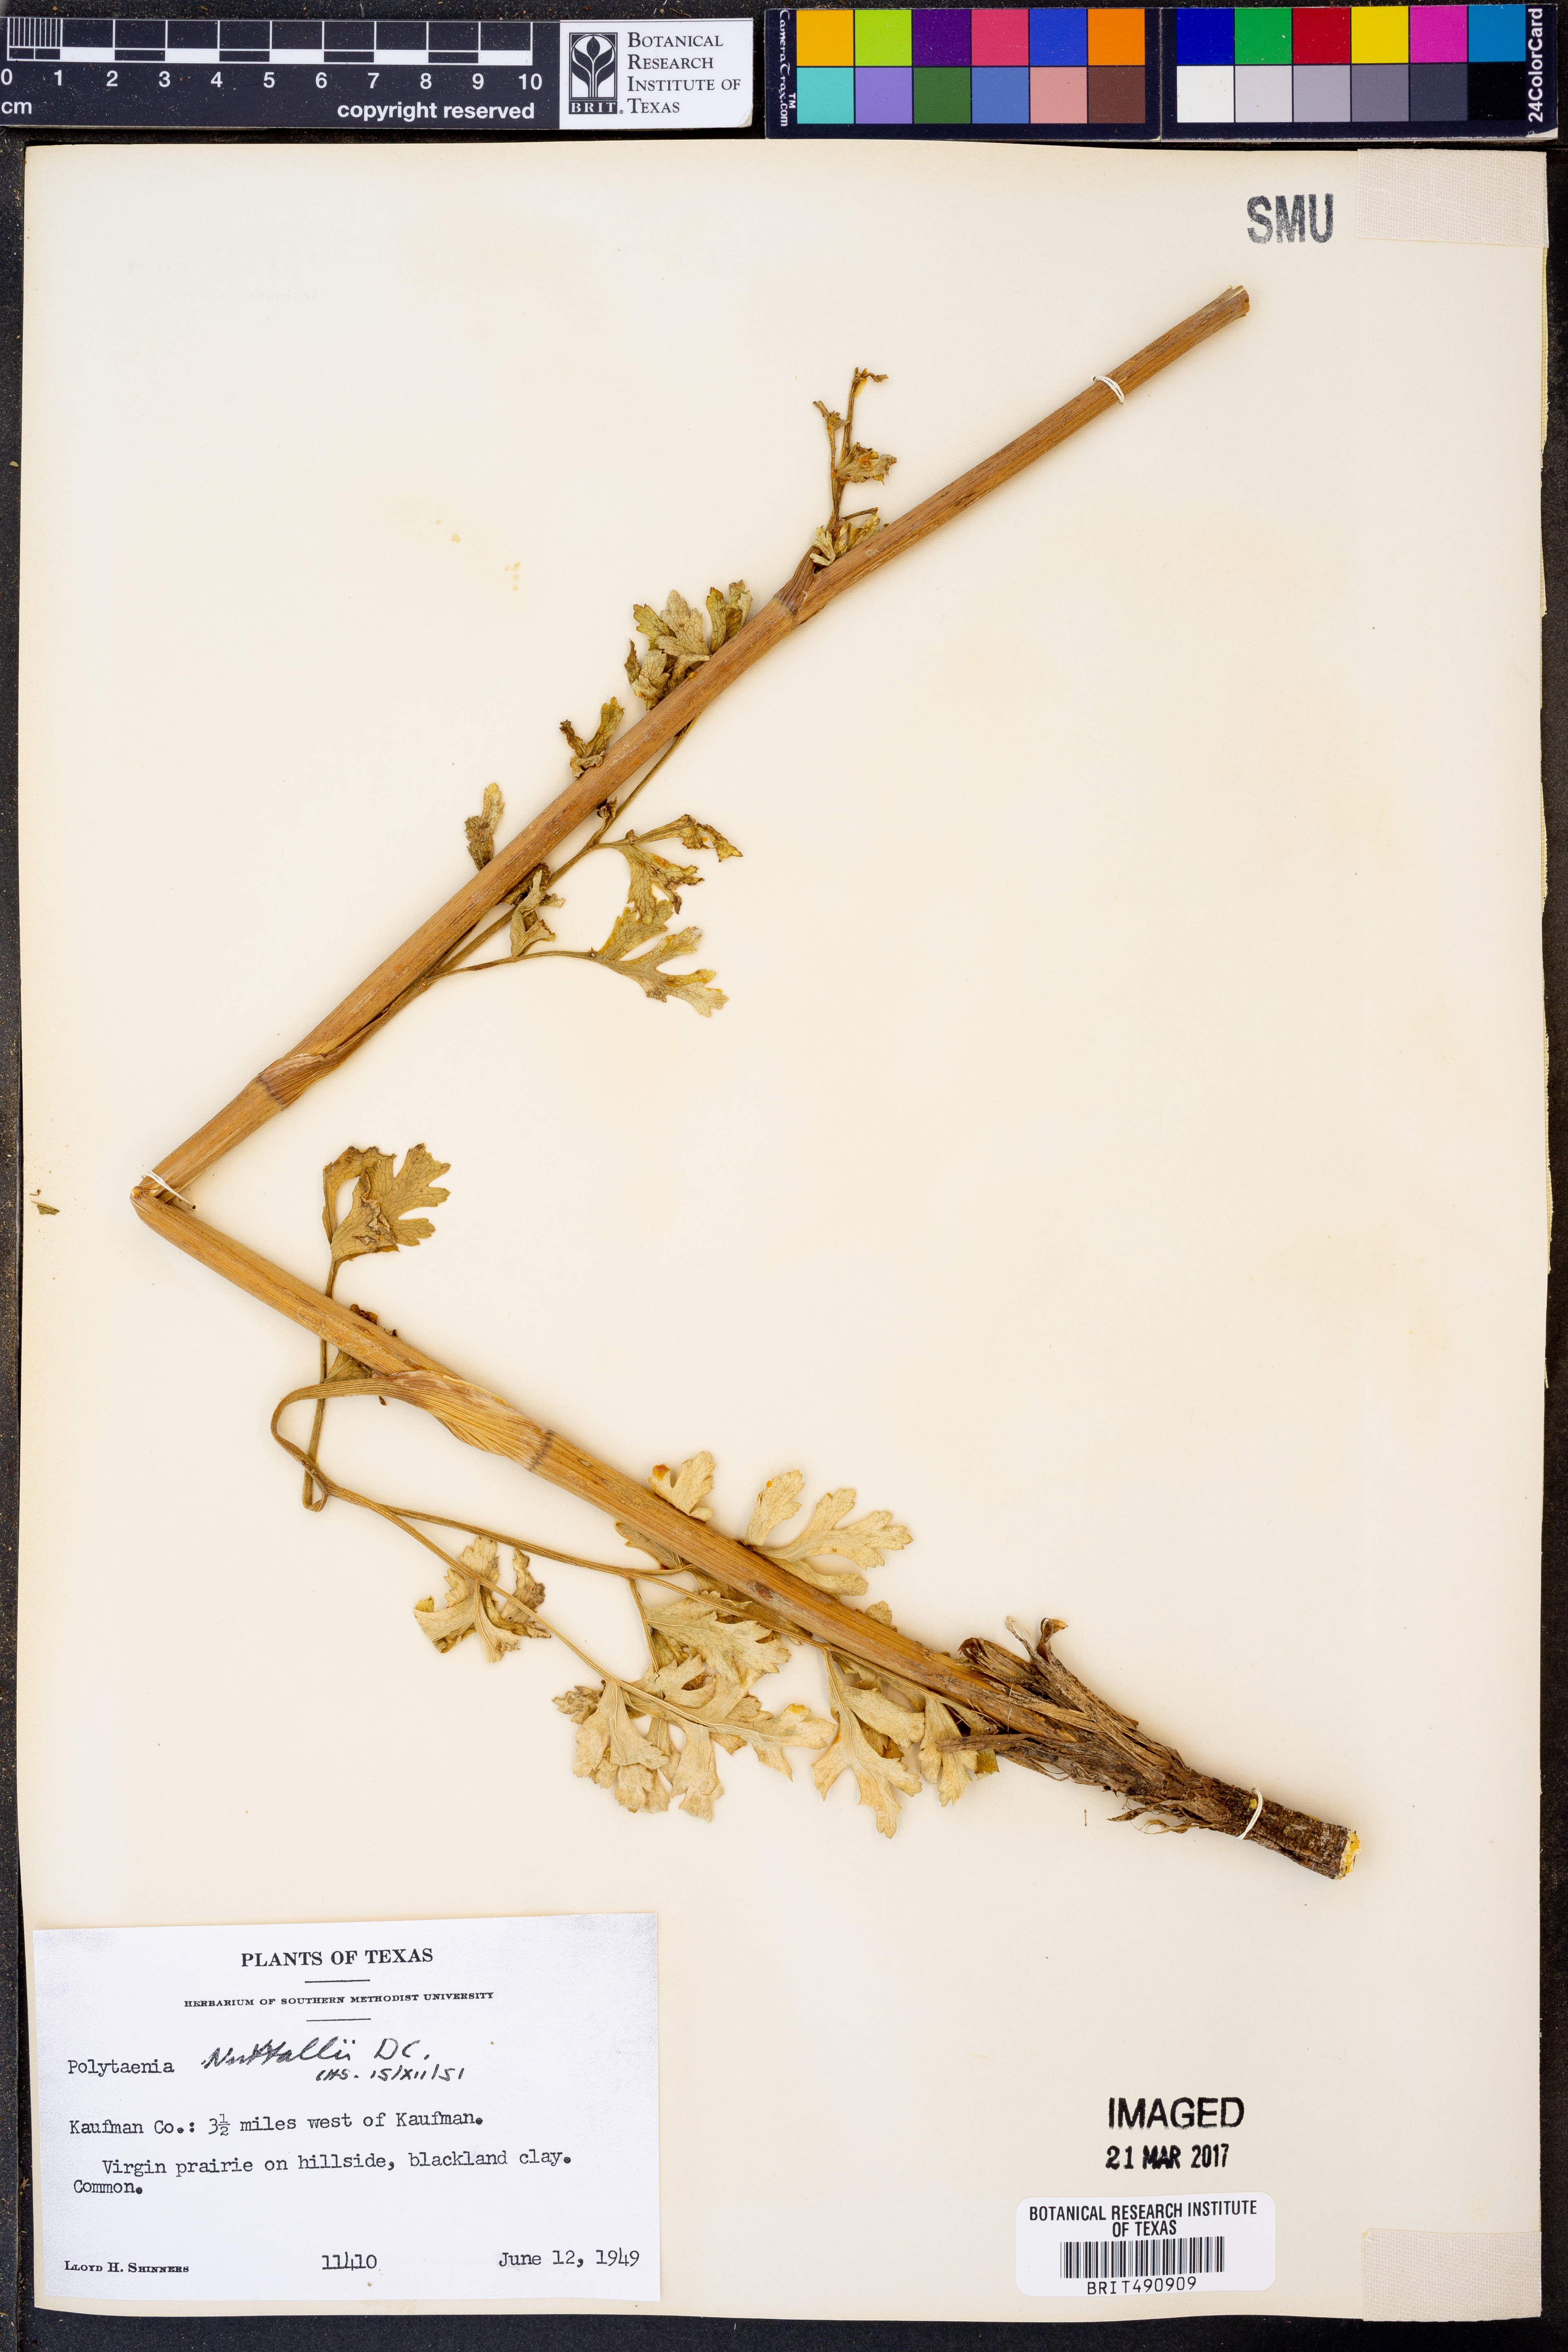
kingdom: Plantae
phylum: Tracheophyta
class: Magnoliopsida
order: Apiales
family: Apiaceae
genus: Polytaenia
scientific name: Polytaenia nuttallii
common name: Prairie-parsley
